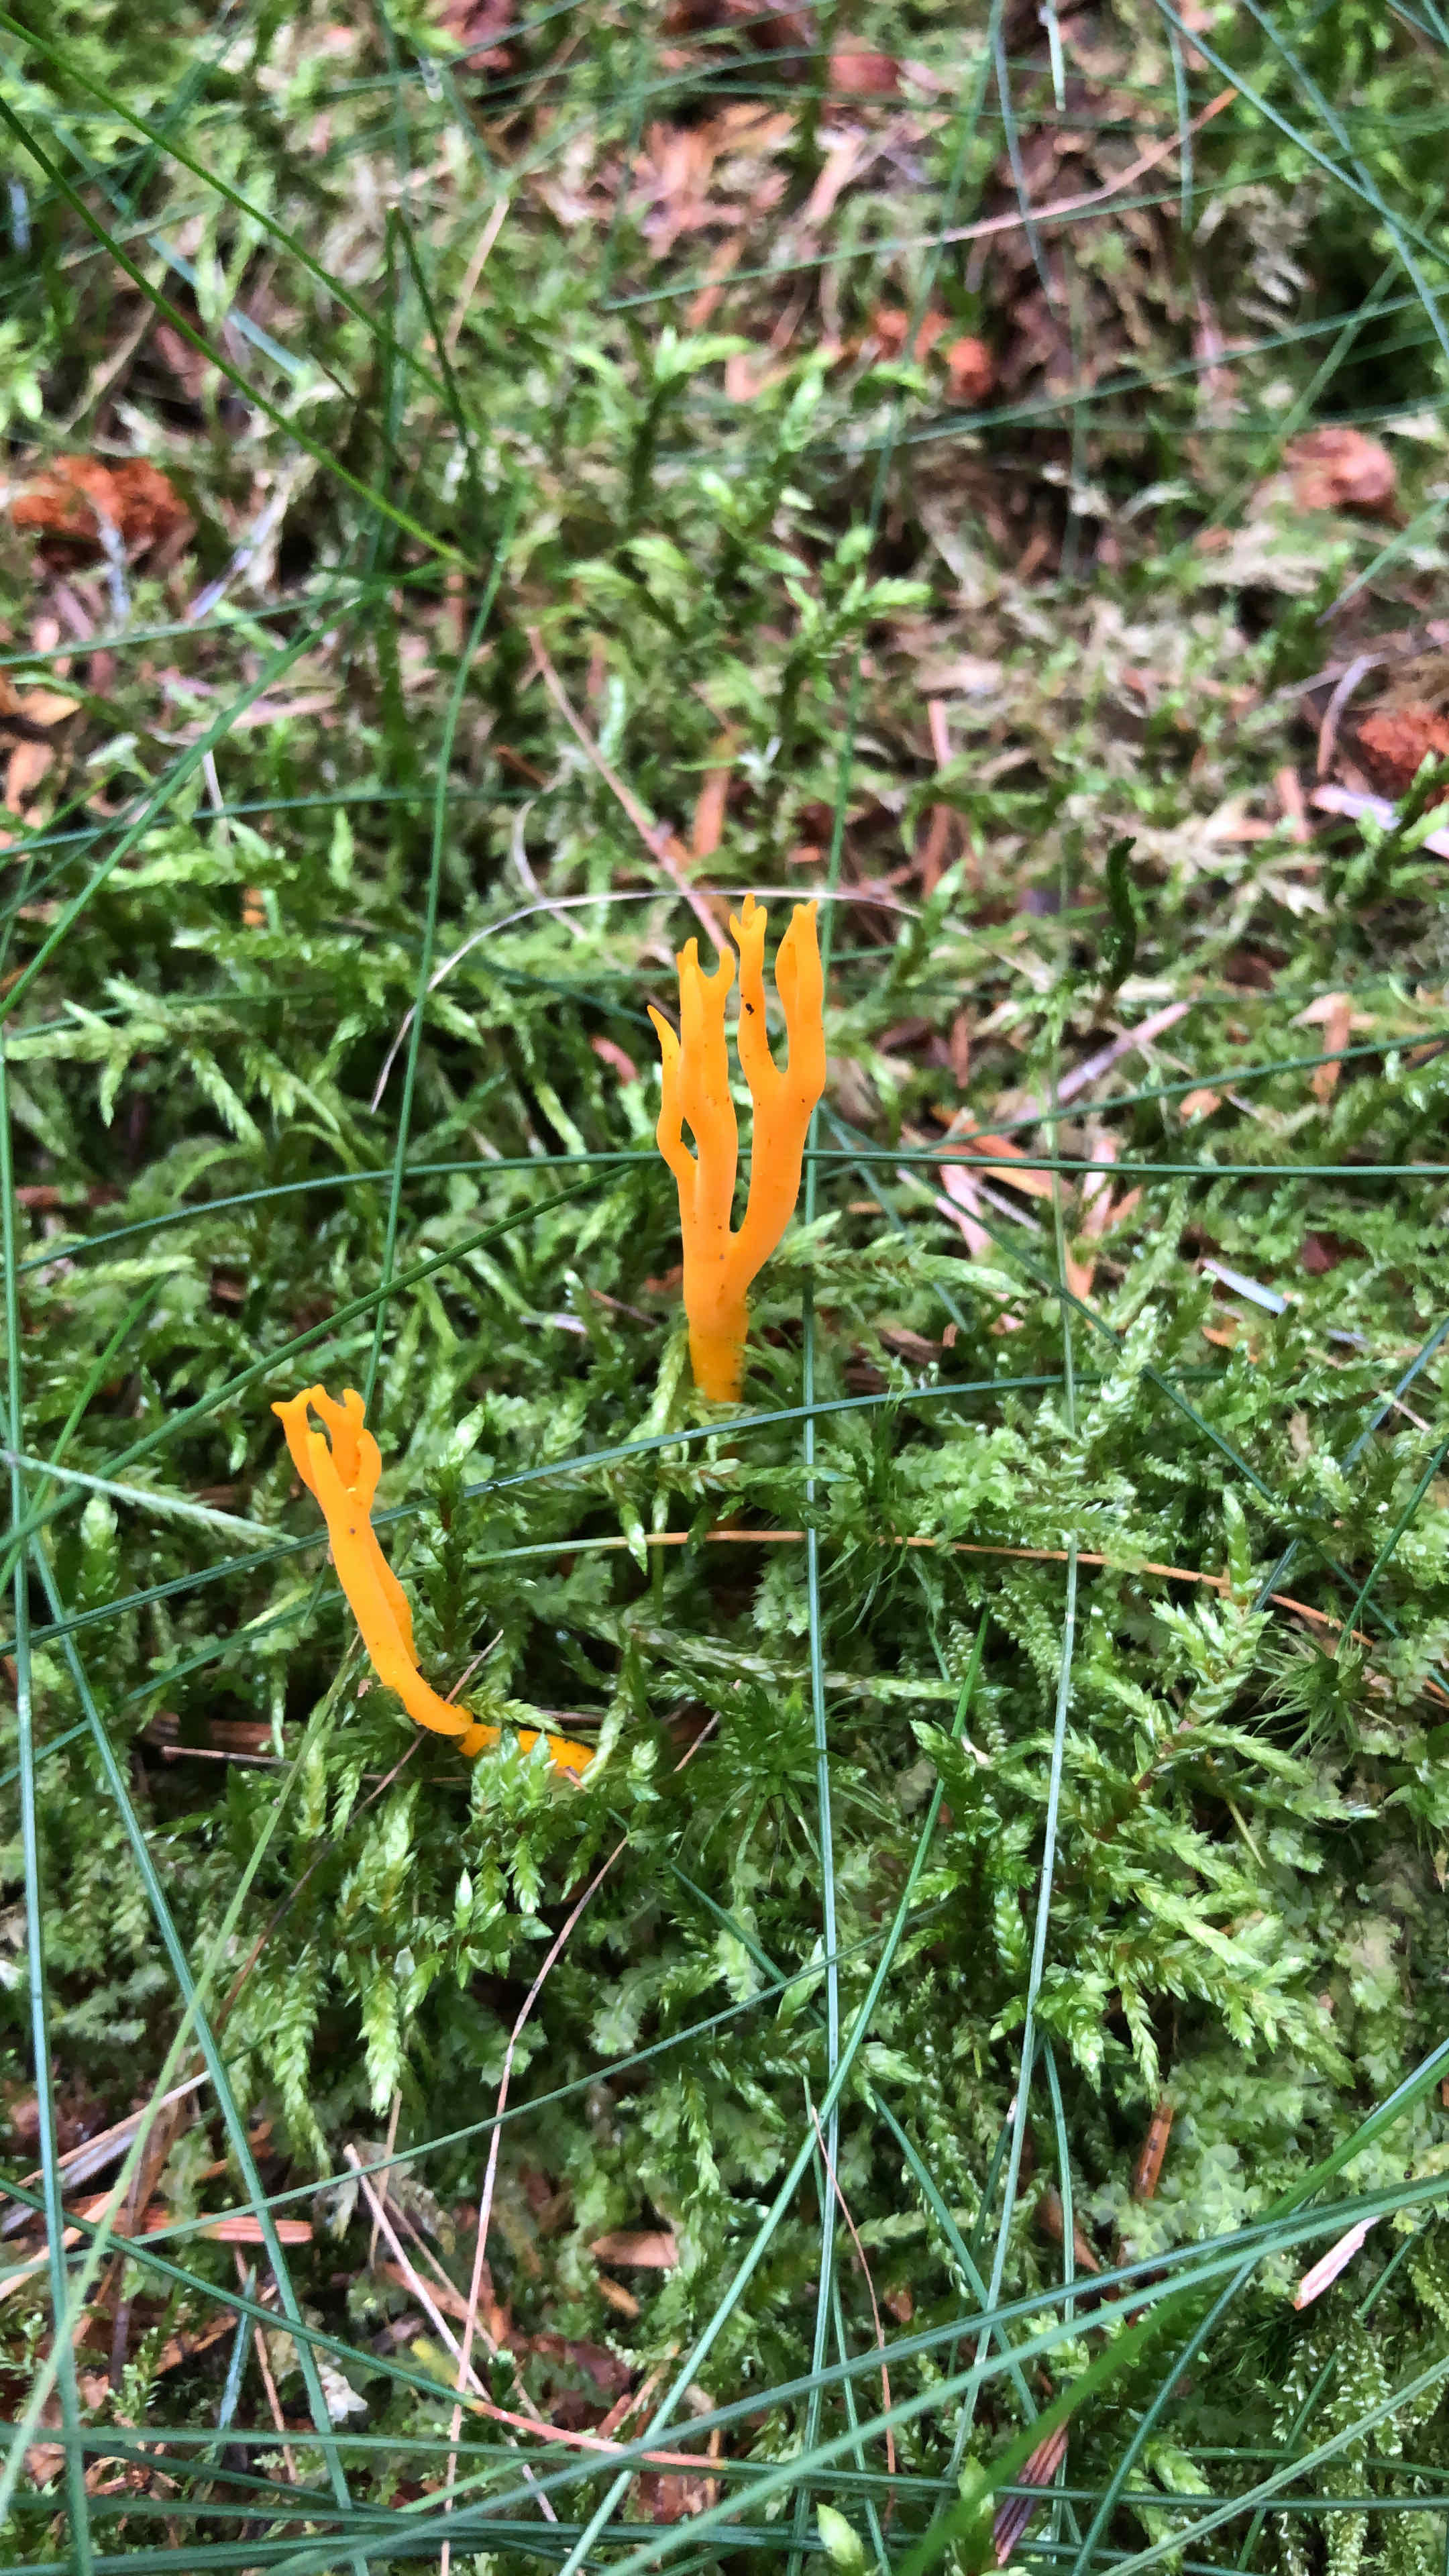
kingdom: Fungi
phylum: Basidiomycota
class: Dacrymycetes
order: Dacrymycetales
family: Dacrymycetaceae
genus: Calocera
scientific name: Calocera viscosa
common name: almindelig guldgaffel
